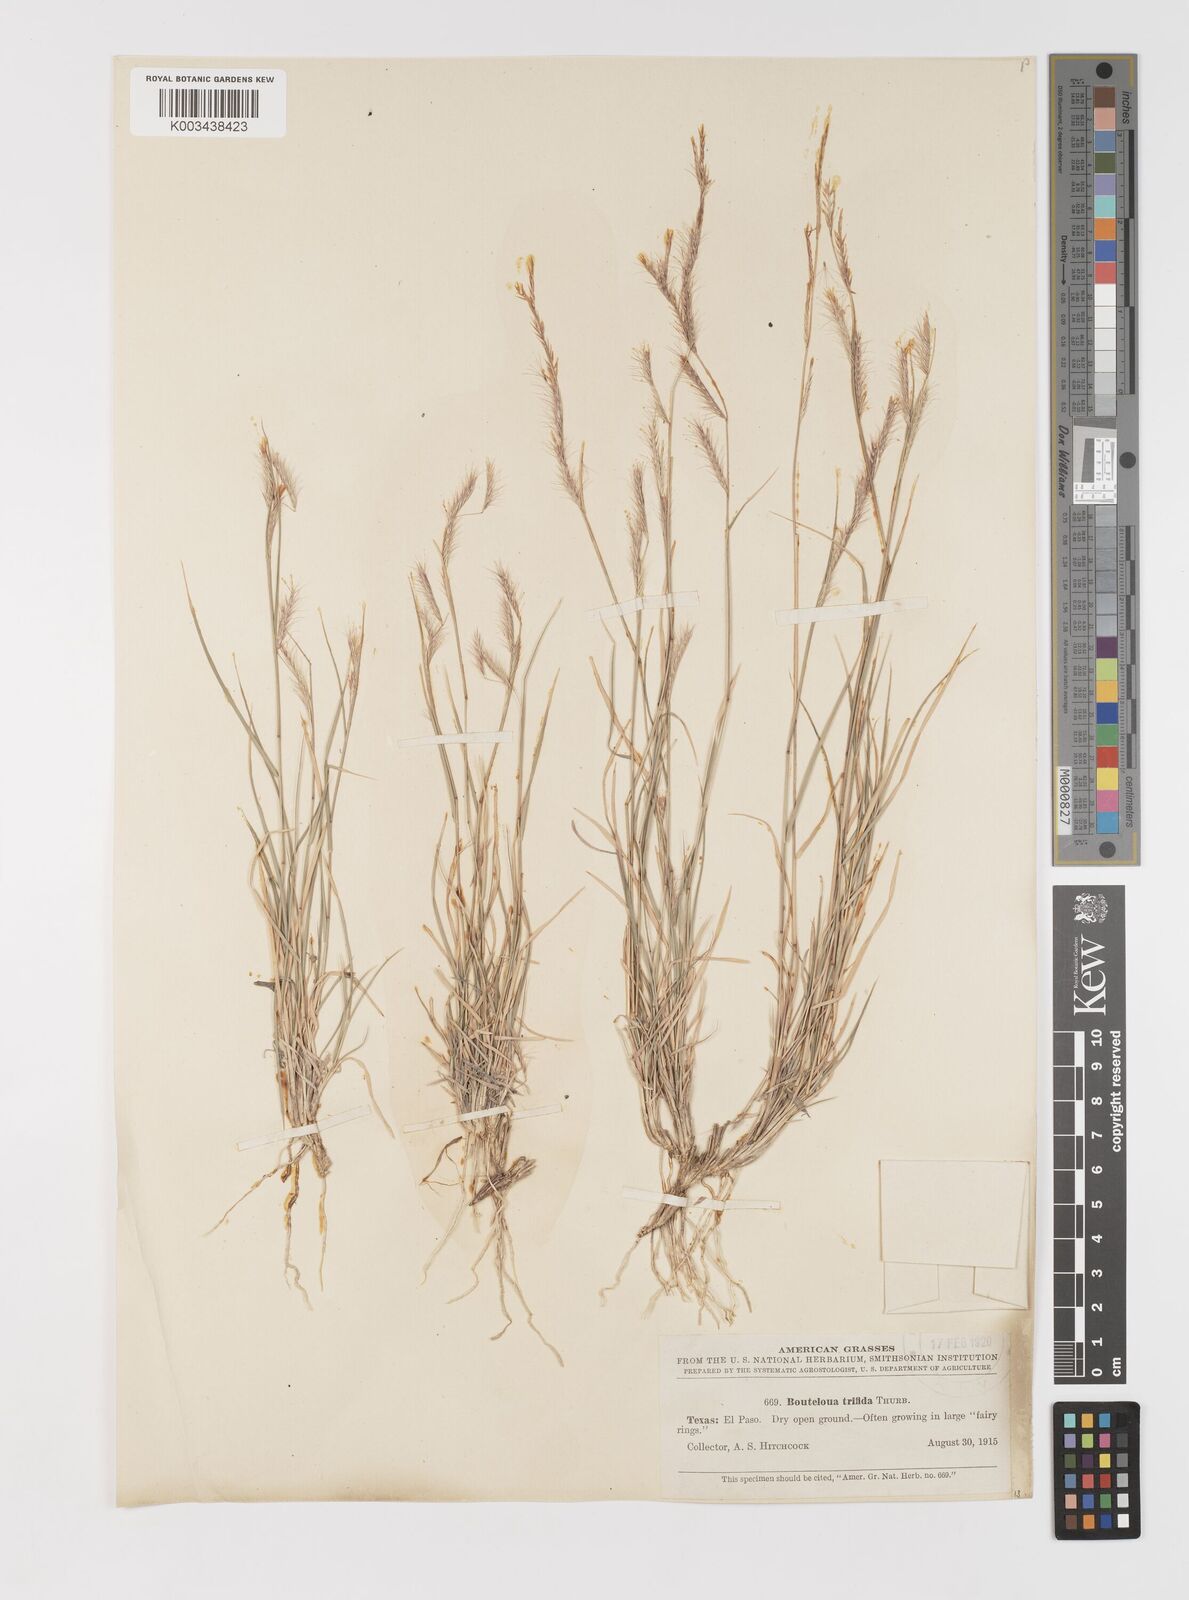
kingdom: Plantae
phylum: Tracheophyta
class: Liliopsida
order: Poales
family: Poaceae
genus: Bouteloua
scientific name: Bouteloua trifida
